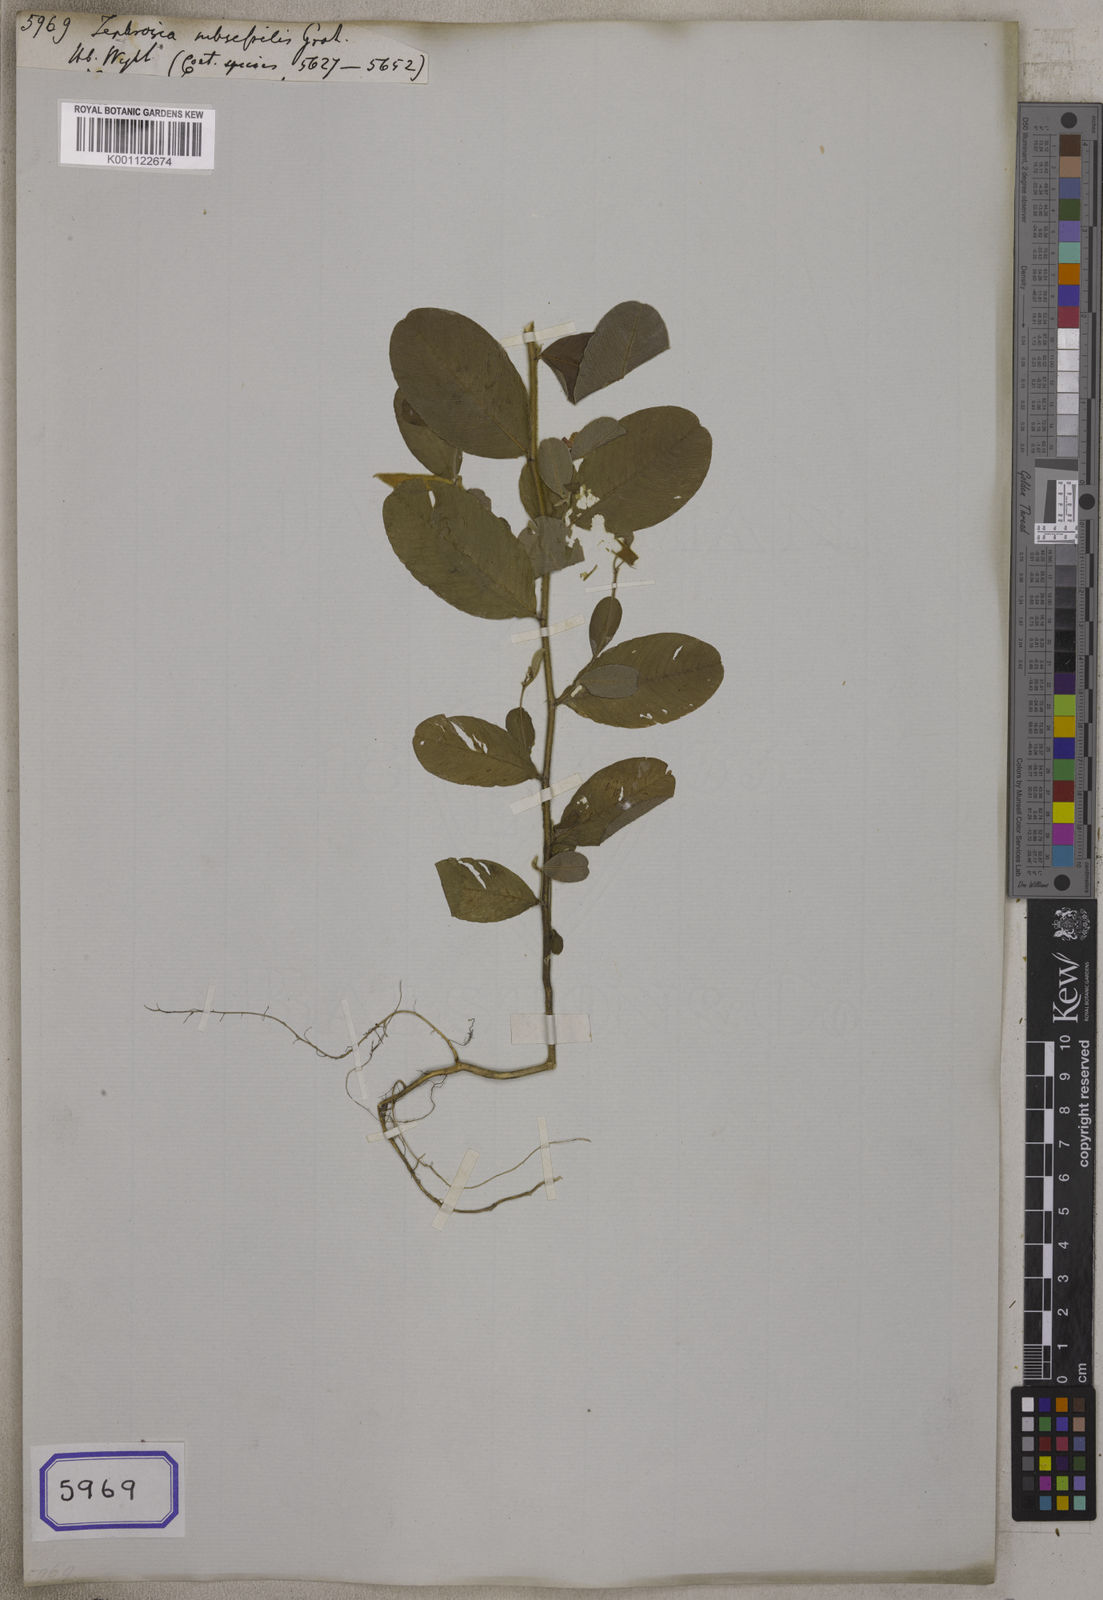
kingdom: Plantae
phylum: Tracheophyta
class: Magnoliopsida
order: Fabales
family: Fabaceae
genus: Tephrosia
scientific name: Tephrosia subsessilis
